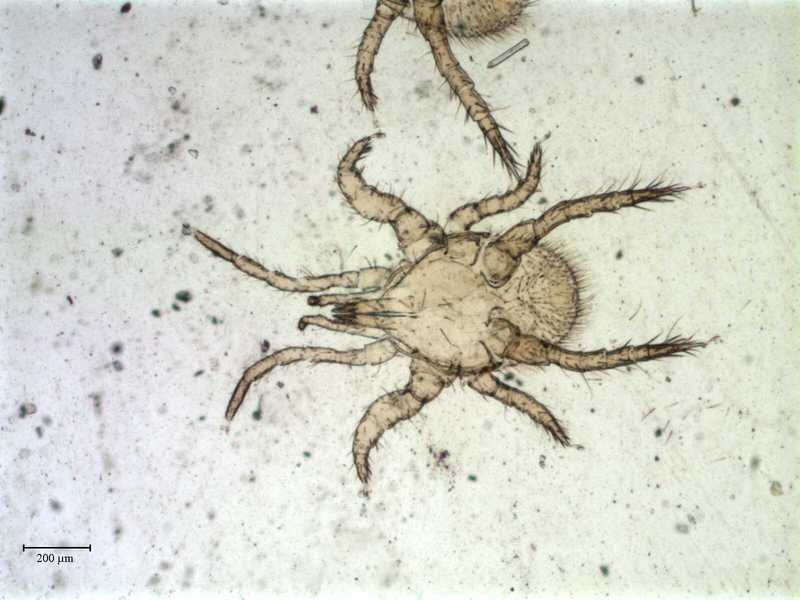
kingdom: Animalia
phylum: Arthropoda
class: Arachnida
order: Mesostigmata
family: Parasitidae
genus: Parasitellus
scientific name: Parasitellus crinitus
